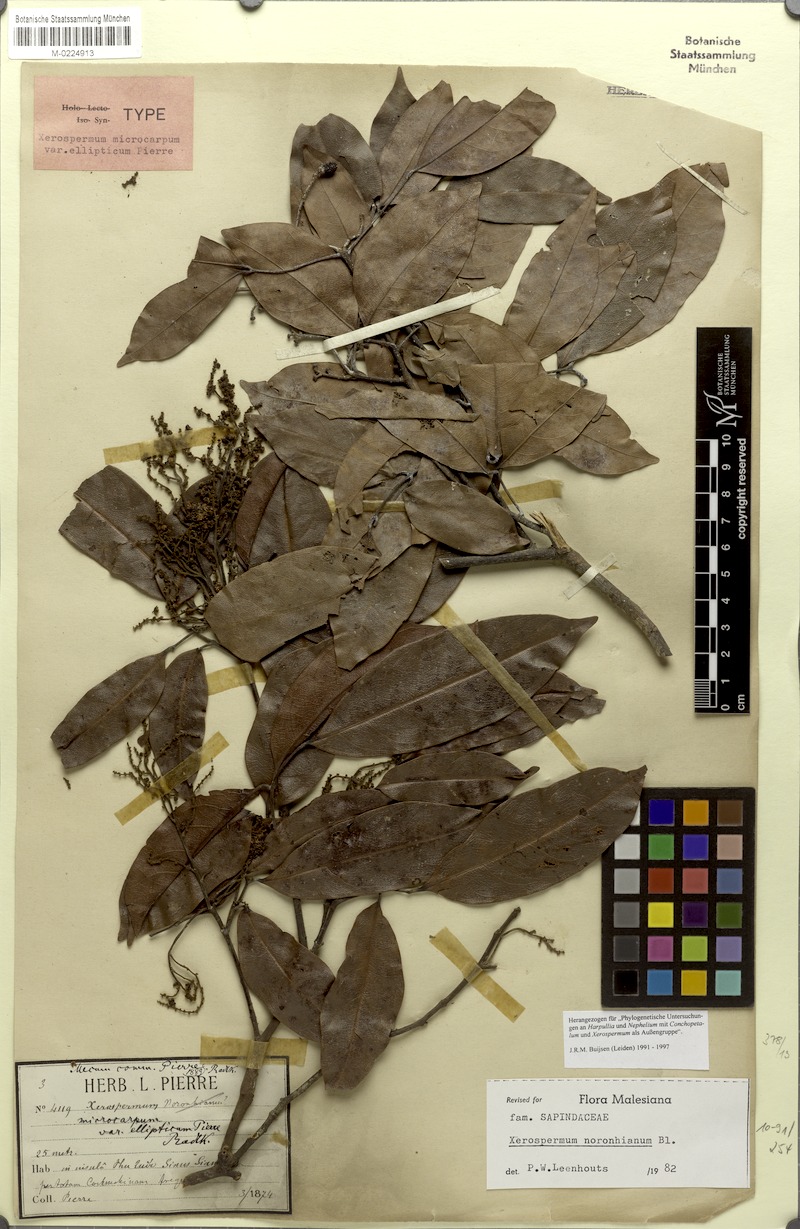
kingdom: Plantae
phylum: Tracheophyta
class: Magnoliopsida
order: Sapindales
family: Sapindaceae
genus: Xerospermum
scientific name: Xerospermum noronhianum
